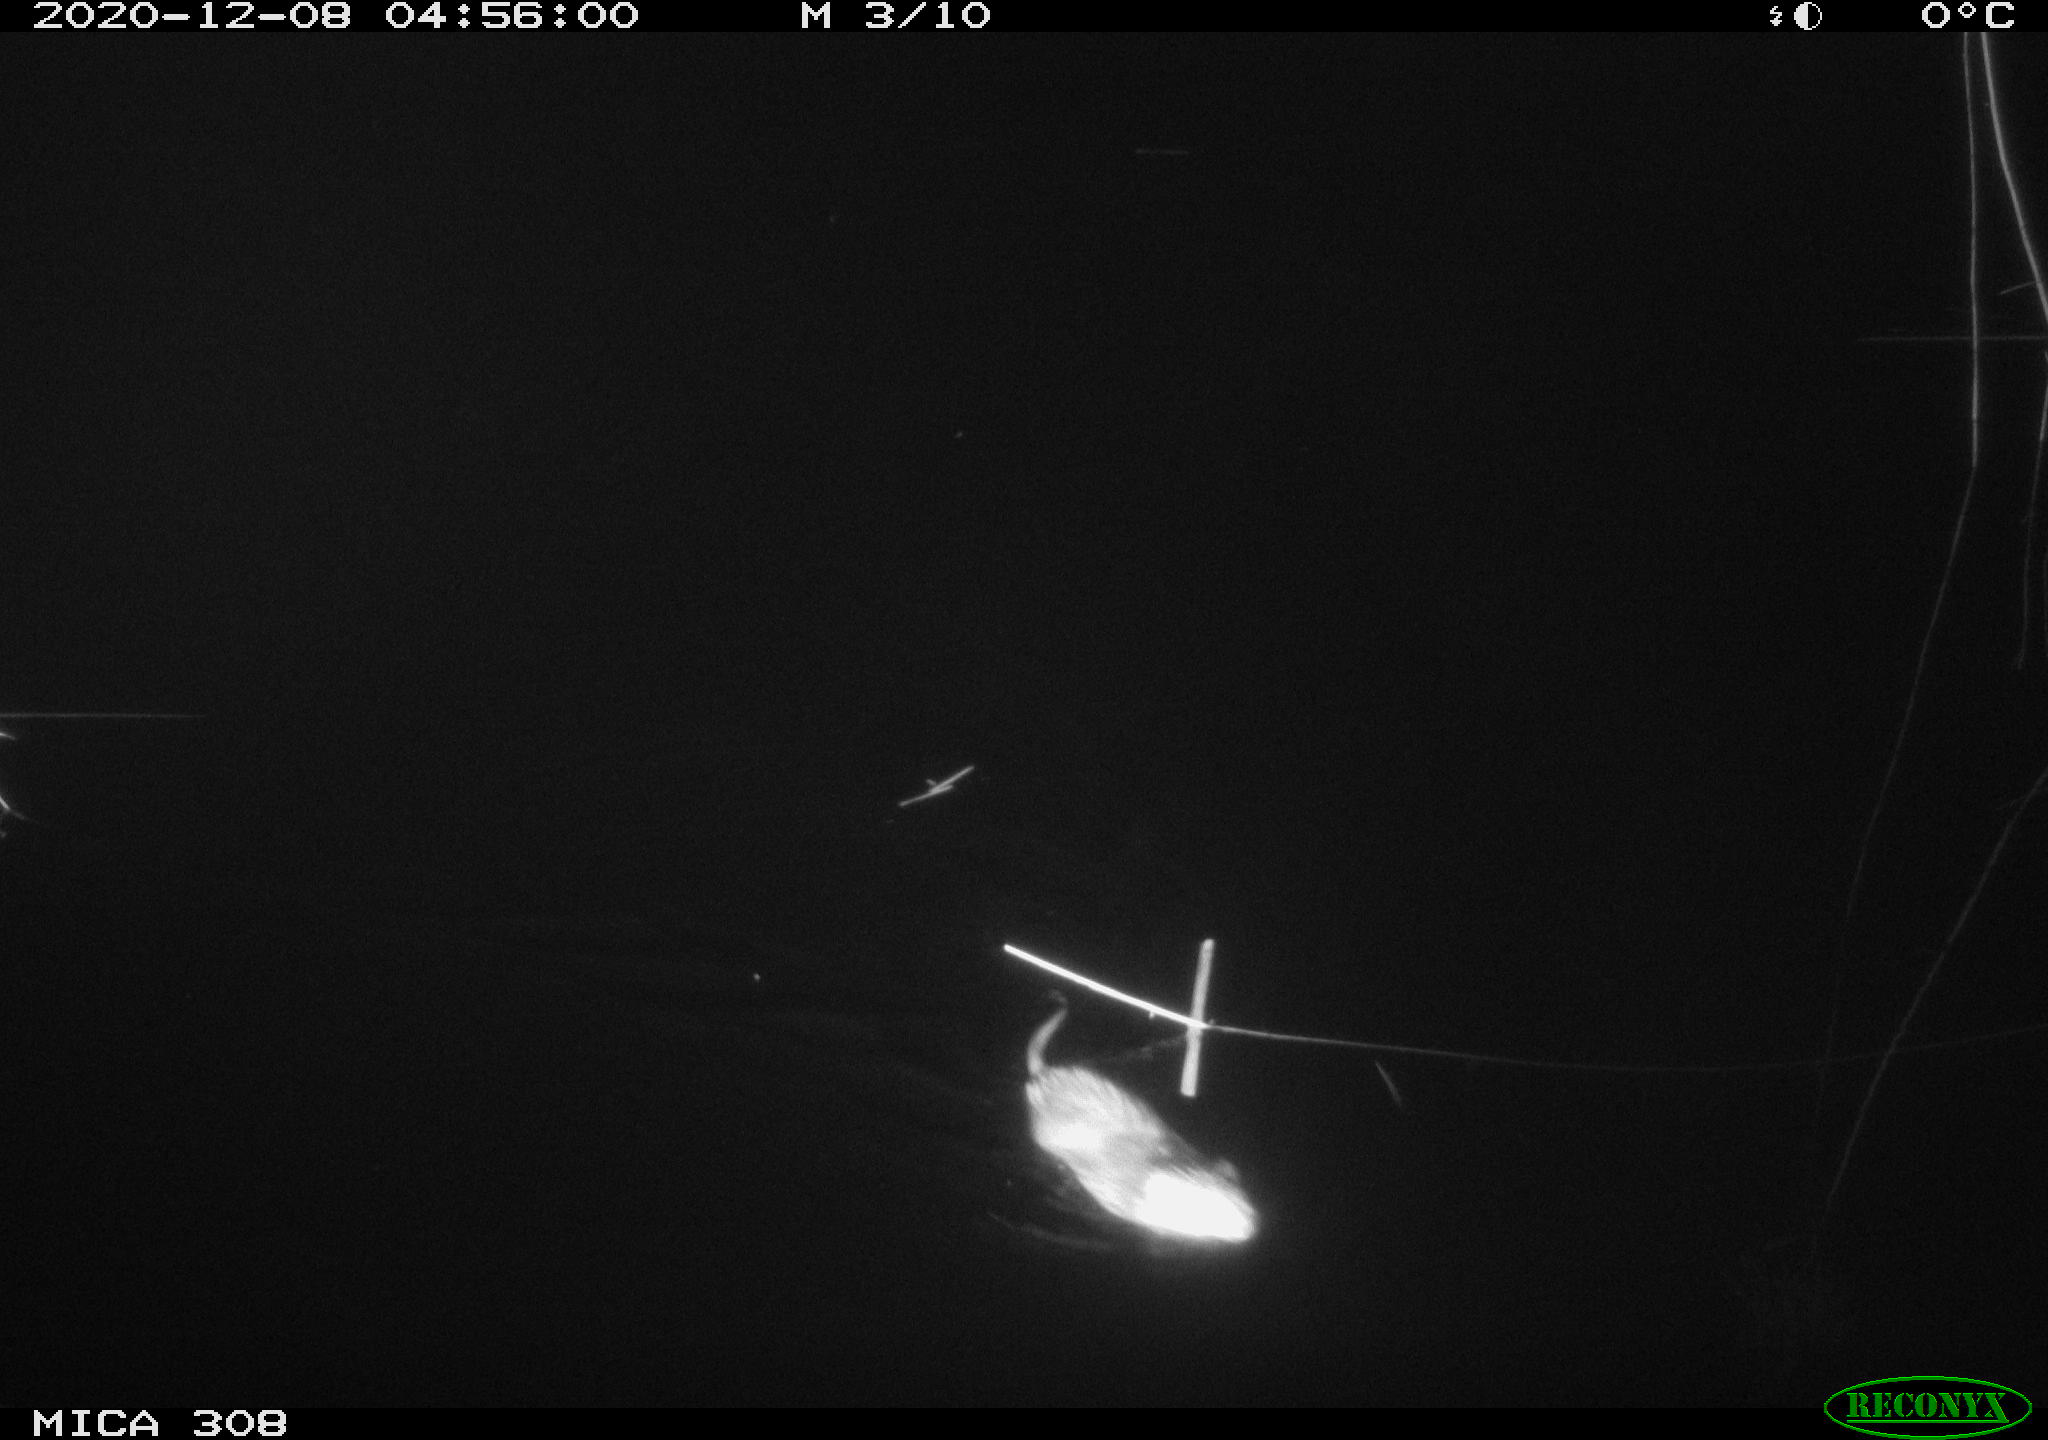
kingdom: Animalia
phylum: Chordata
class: Mammalia
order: Rodentia
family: Cricetidae
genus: Ondatra
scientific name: Ondatra zibethicus
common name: Muskrat
